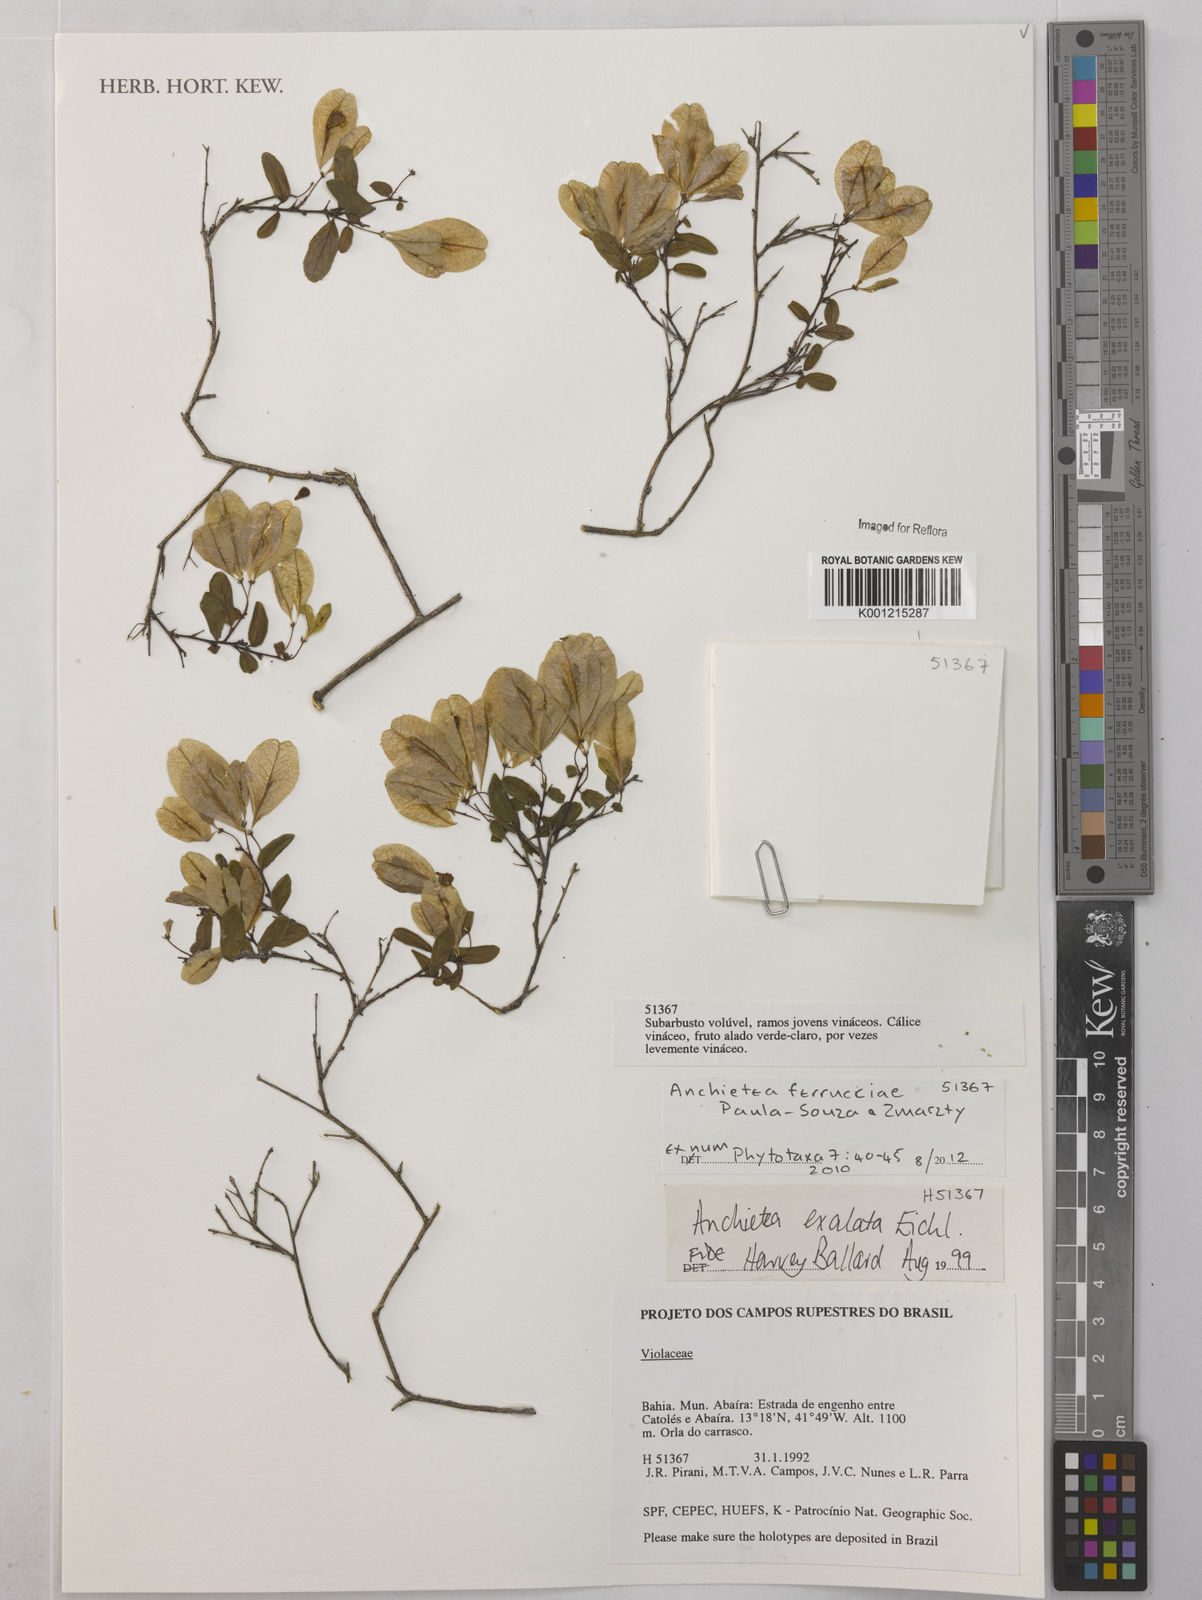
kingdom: Plantae
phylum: Tracheophyta
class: Magnoliopsida
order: Malpighiales
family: Violaceae
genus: Anchietea
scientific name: Anchietea ferrucciae
